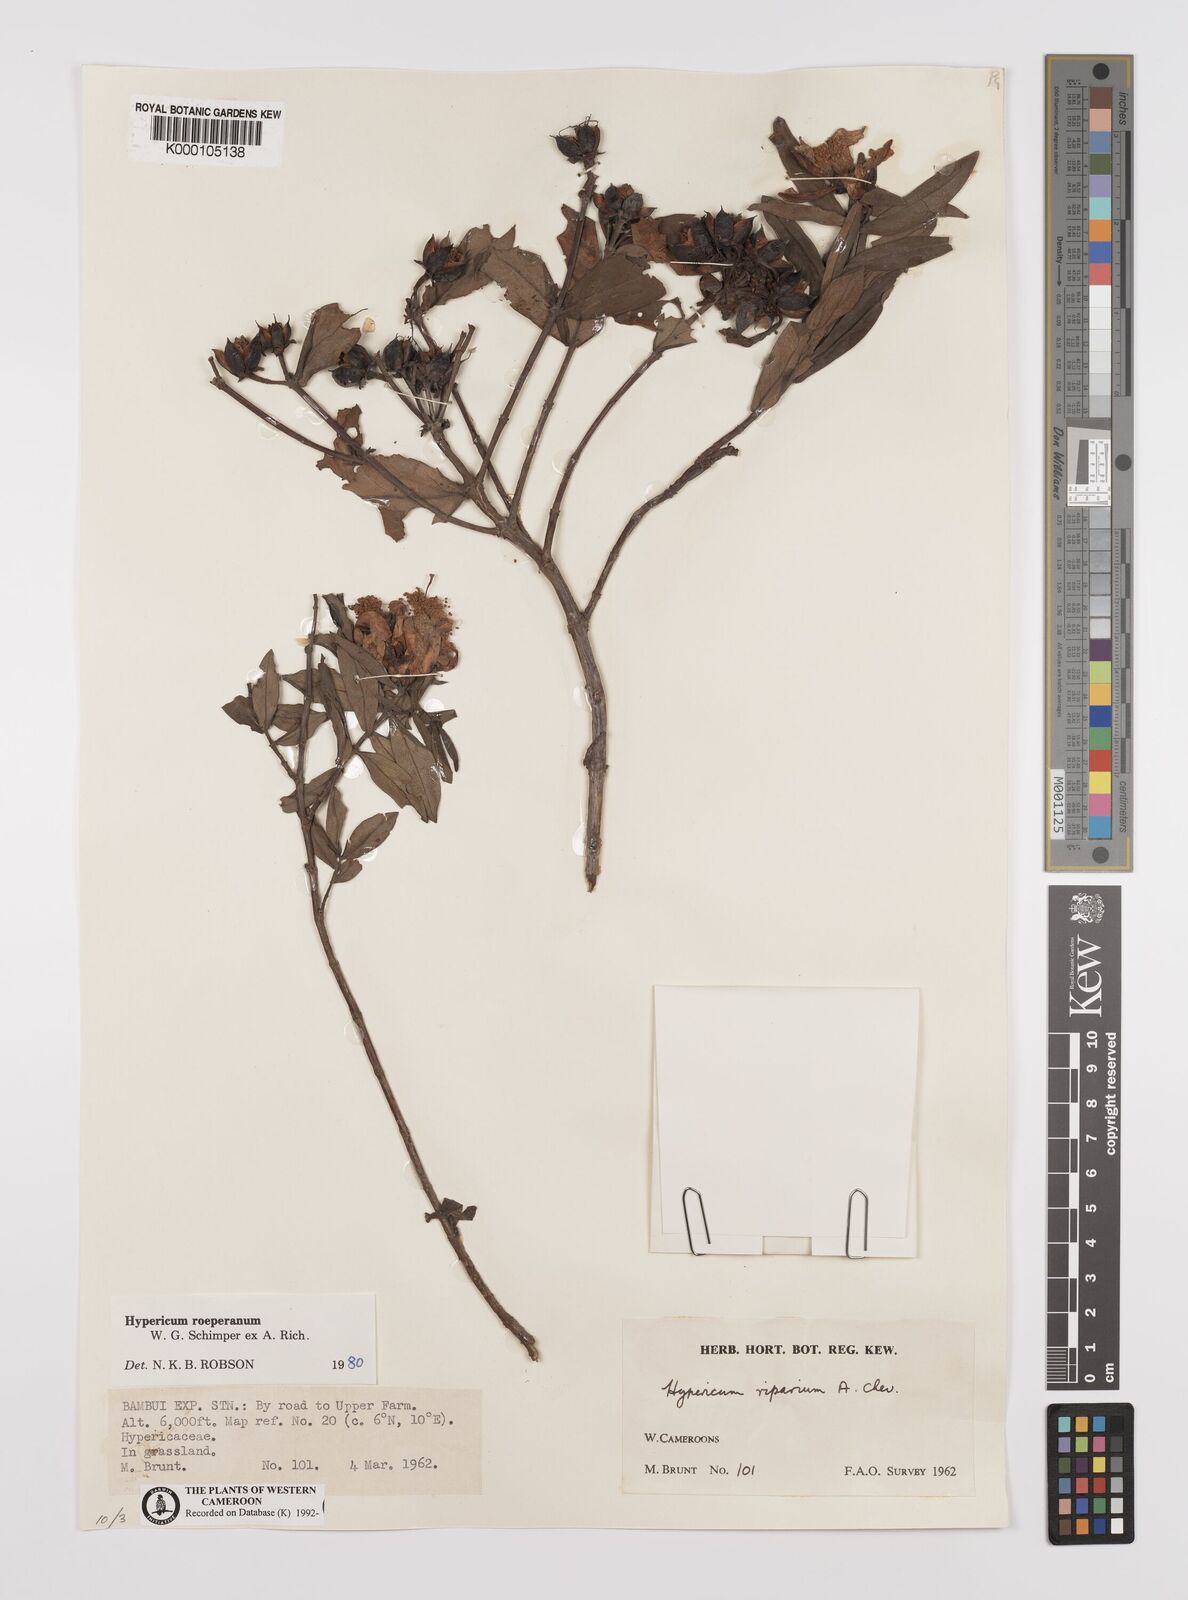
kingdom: Plantae
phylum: Tracheophyta
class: Magnoliopsida
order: Malpighiales
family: Hypericaceae
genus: Hypericum
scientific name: Hypericum
